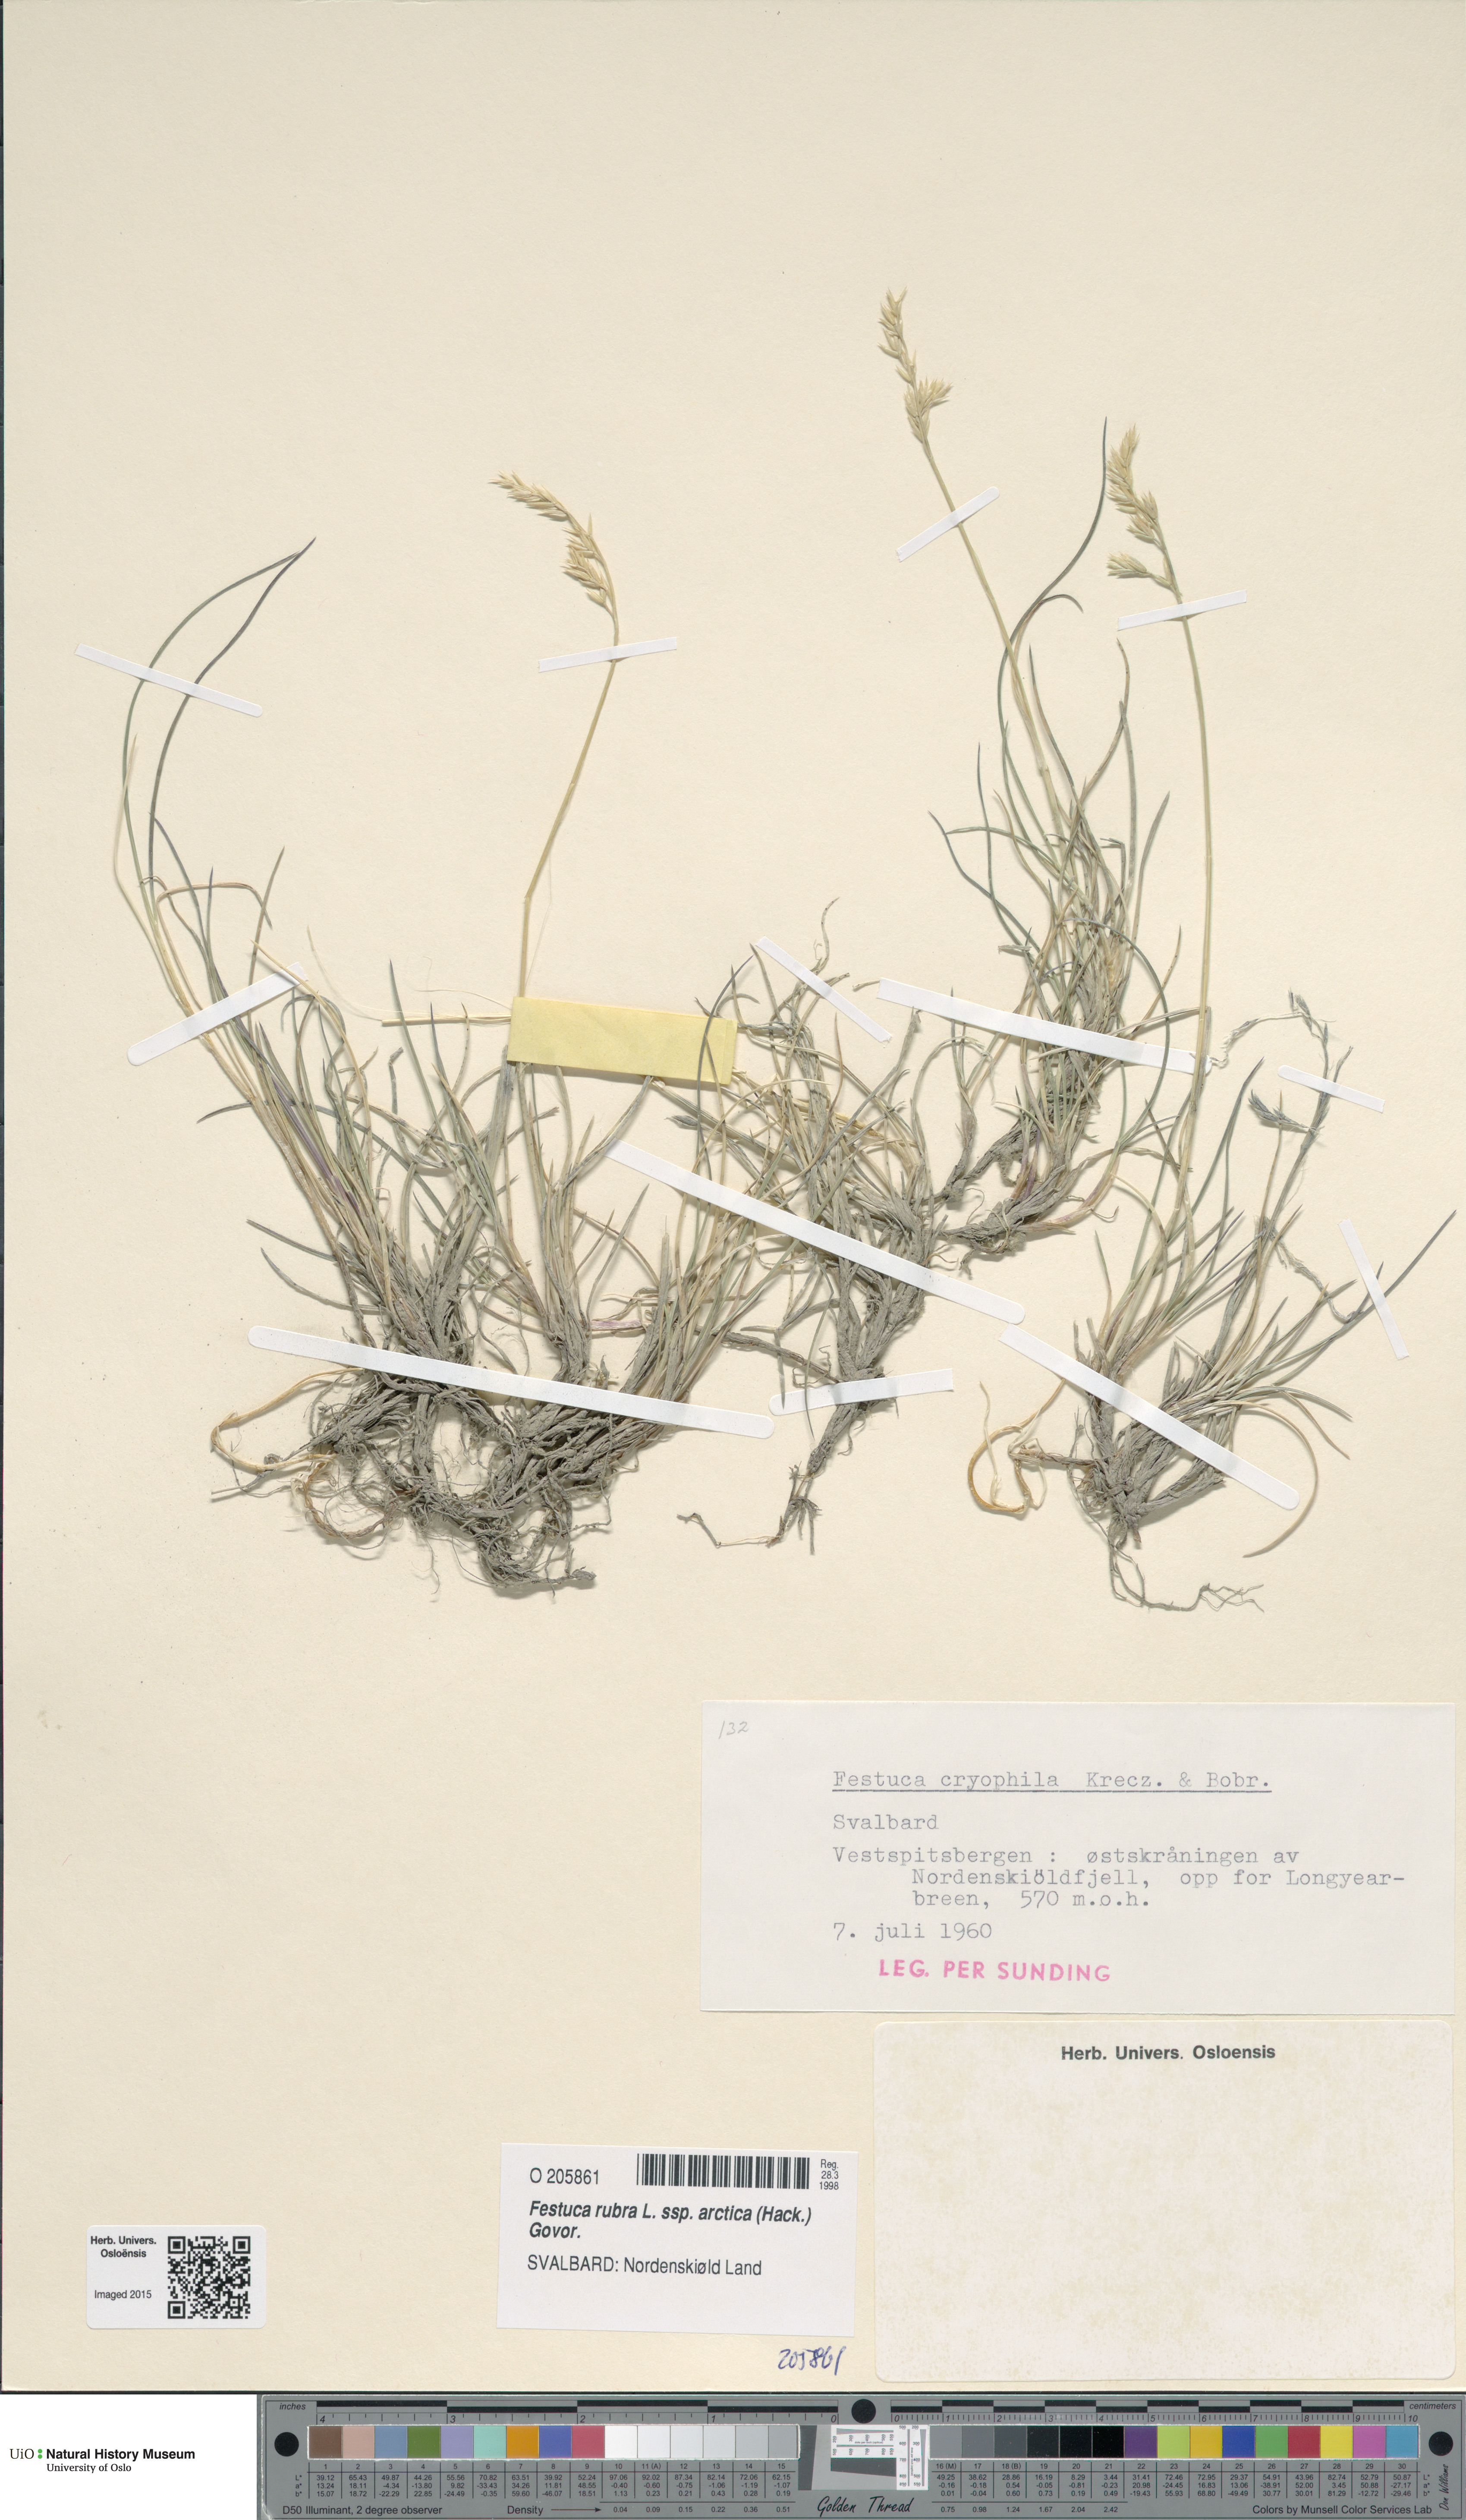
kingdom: Plantae
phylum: Tracheophyta
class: Liliopsida
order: Poales
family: Poaceae
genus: Festuca
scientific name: Festuca richardsonii
